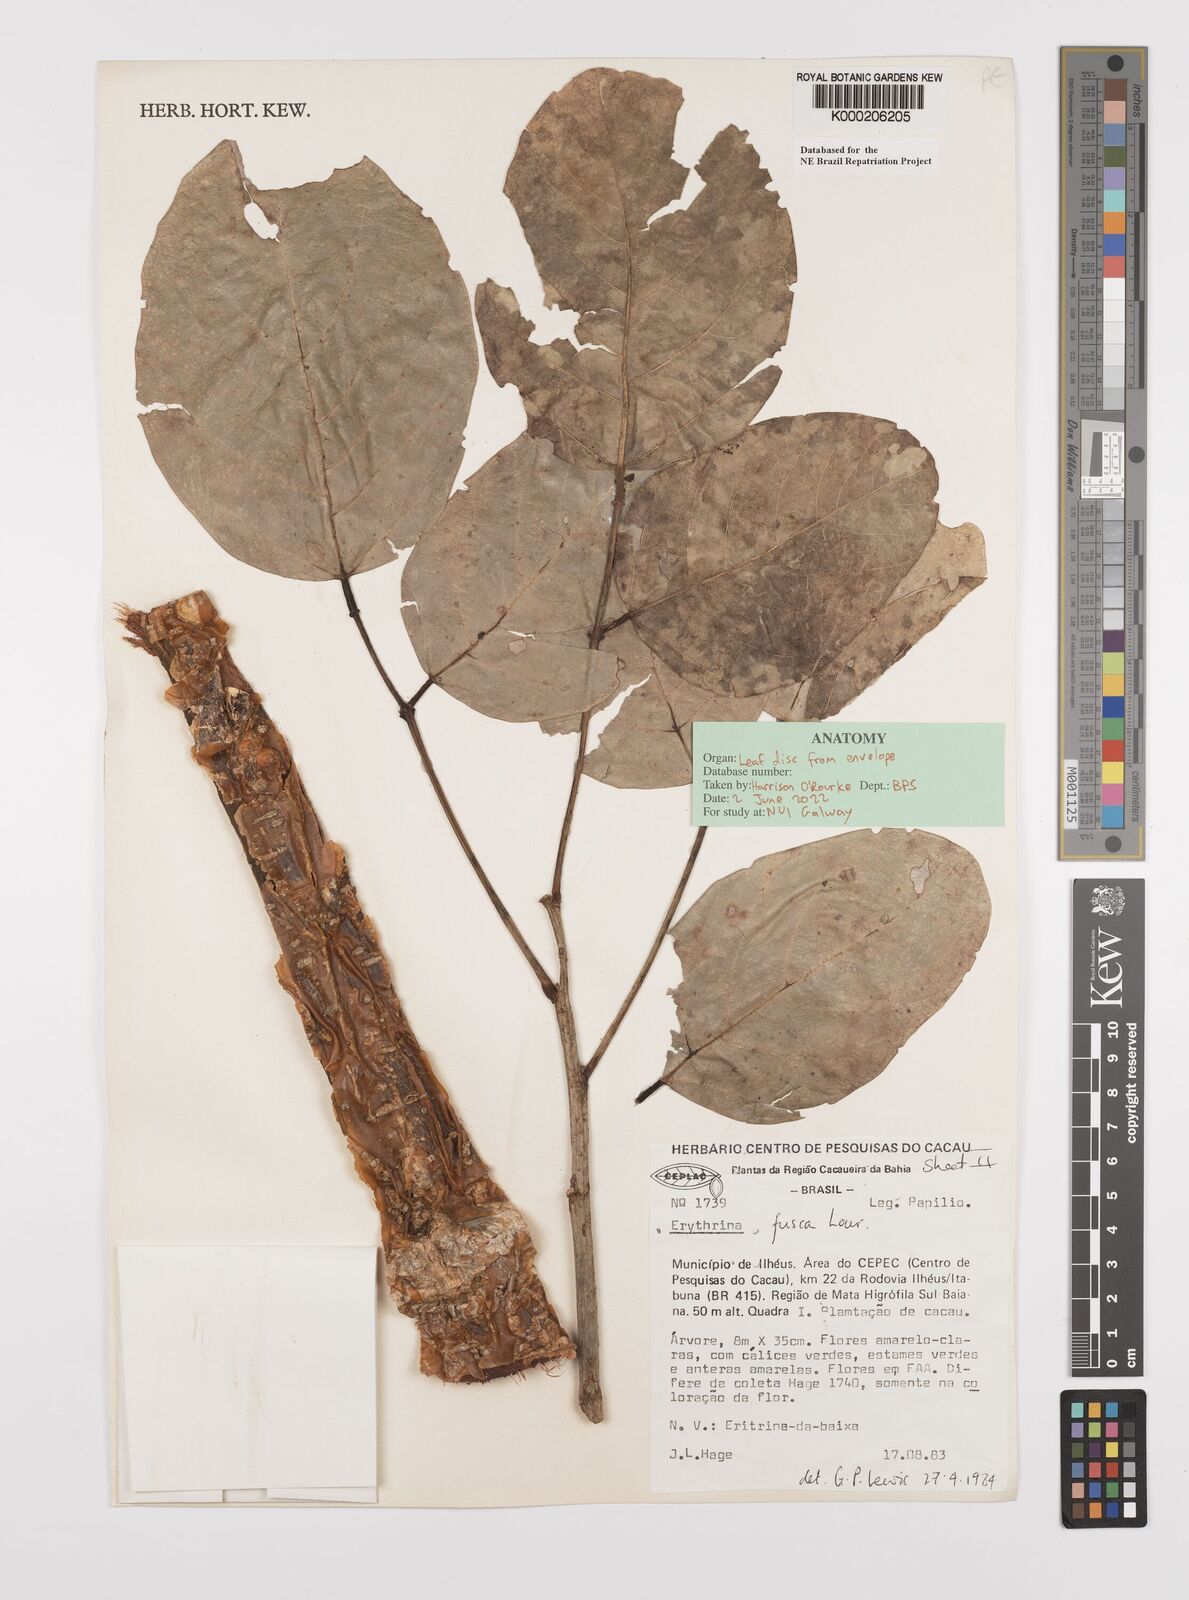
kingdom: Plantae
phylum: Tracheophyta
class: Magnoliopsida
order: Fabales
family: Fabaceae
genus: Erythrina
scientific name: Erythrina fusca
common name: Coral-bean
